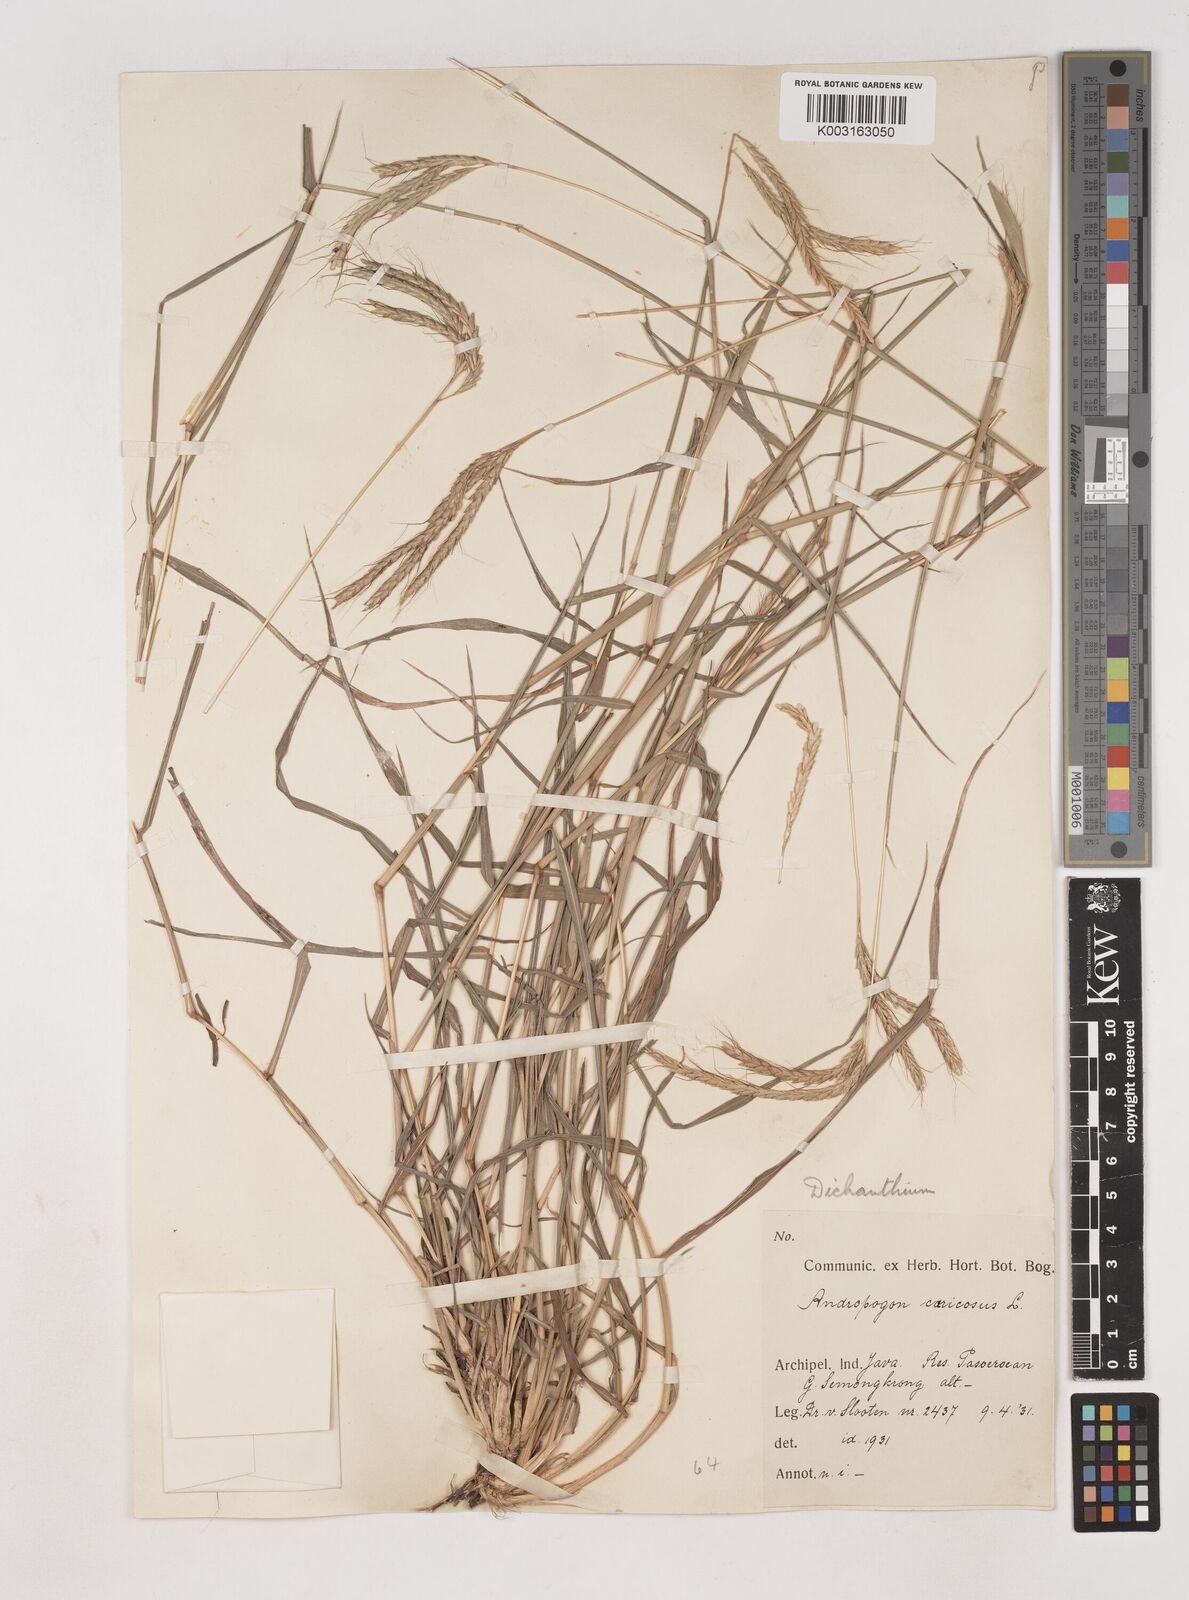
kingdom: Plantae
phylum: Tracheophyta
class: Liliopsida
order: Poales
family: Poaceae
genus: Dichanthium
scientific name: Dichanthium caricosum
